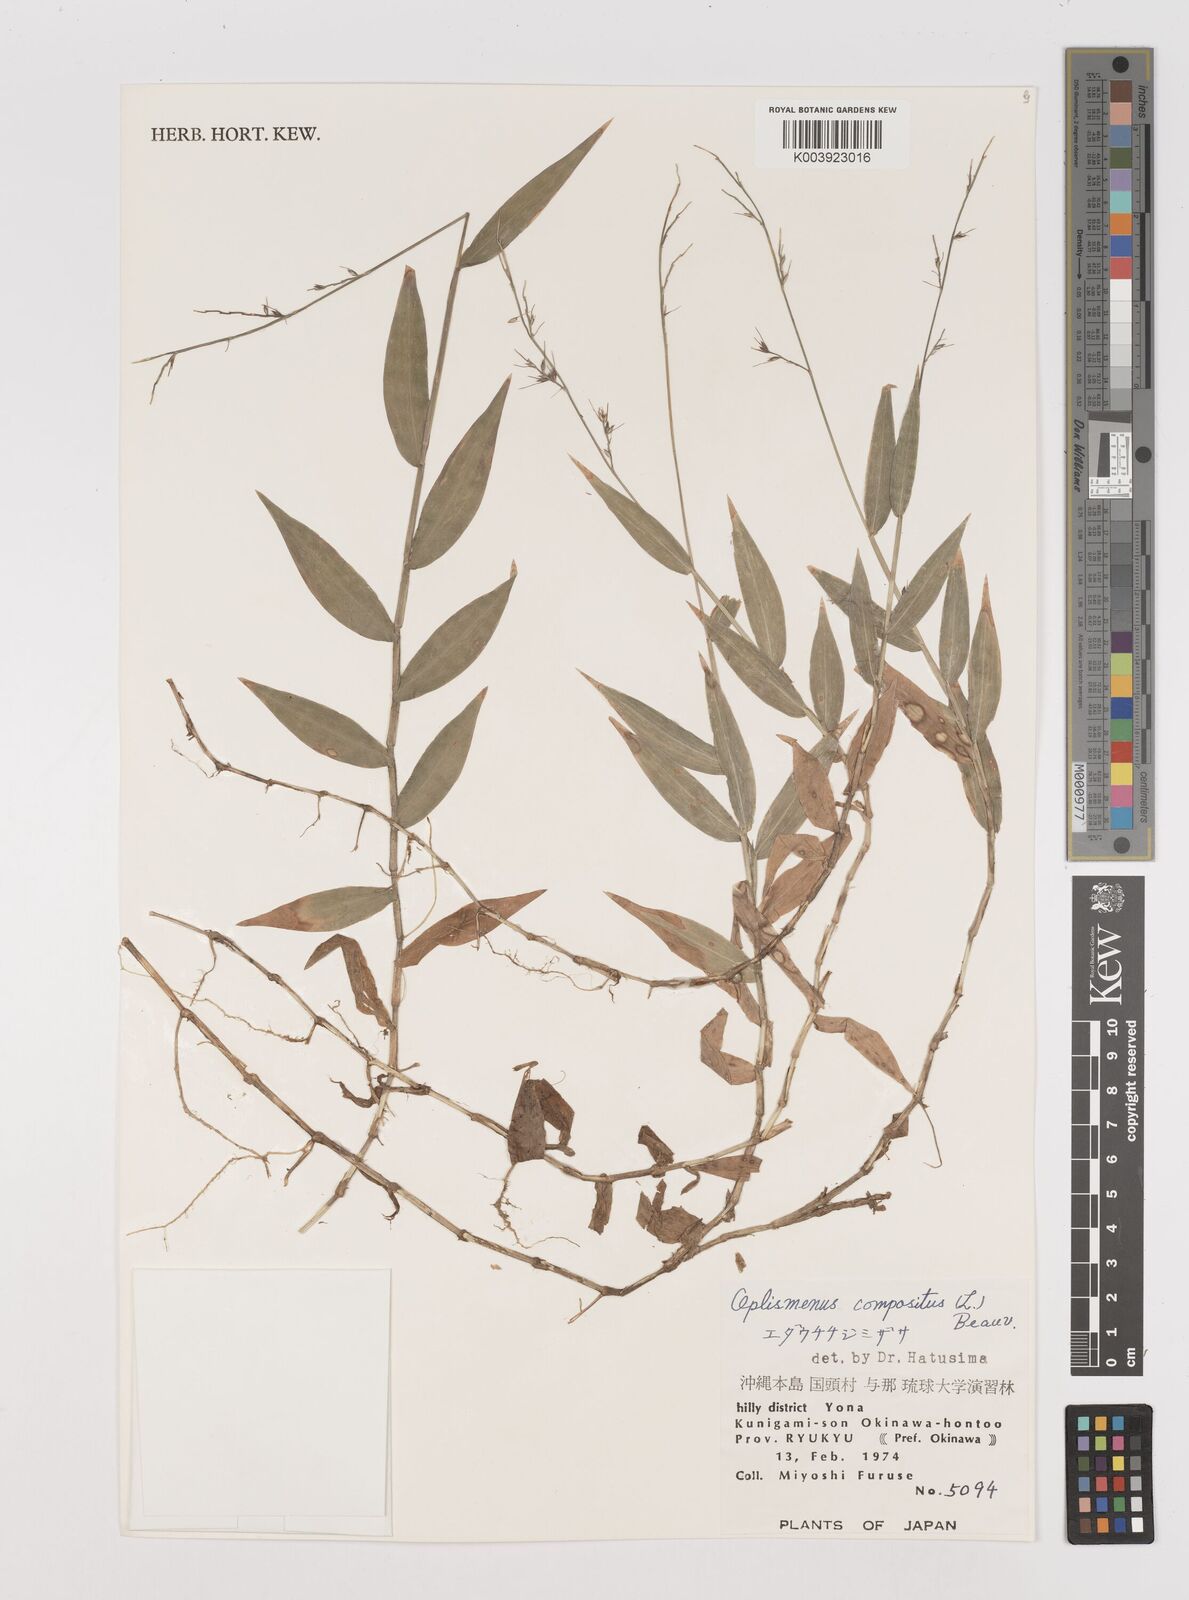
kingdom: Plantae
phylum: Tracheophyta
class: Liliopsida
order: Poales
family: Poaceae
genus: Oplismenus
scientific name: Oplismenus compositus
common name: Running mountain grass
